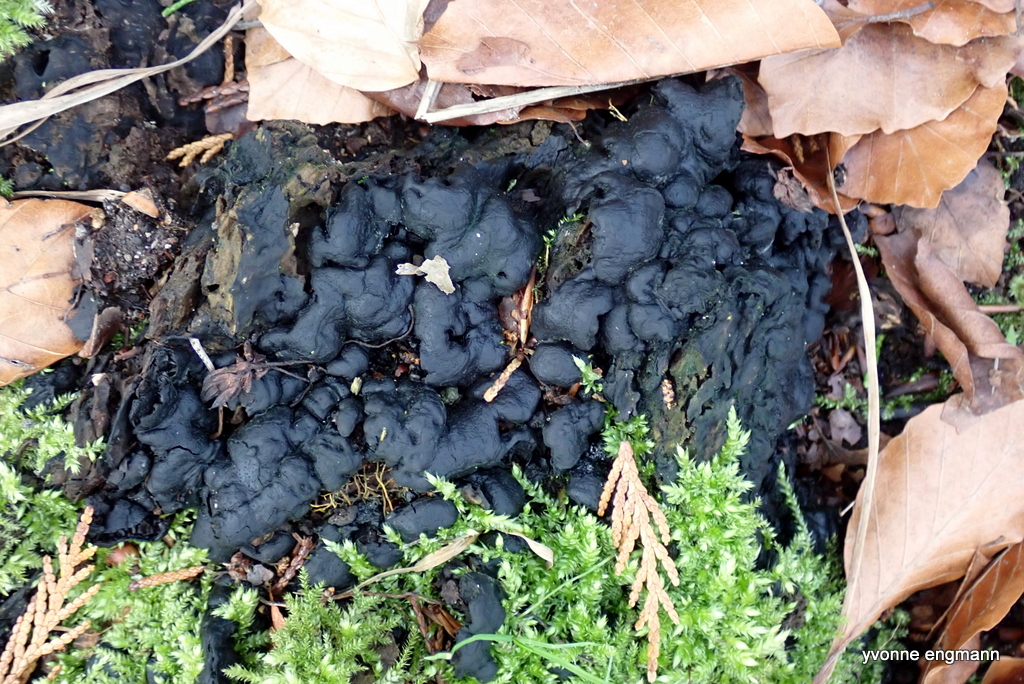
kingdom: Fungi
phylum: Ascomycota
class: Sordariomycetes
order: Xylariales
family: Xylariaceae
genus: Kretzschmaria
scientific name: Kretzschmaria deusta
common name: stor kulsvamp
